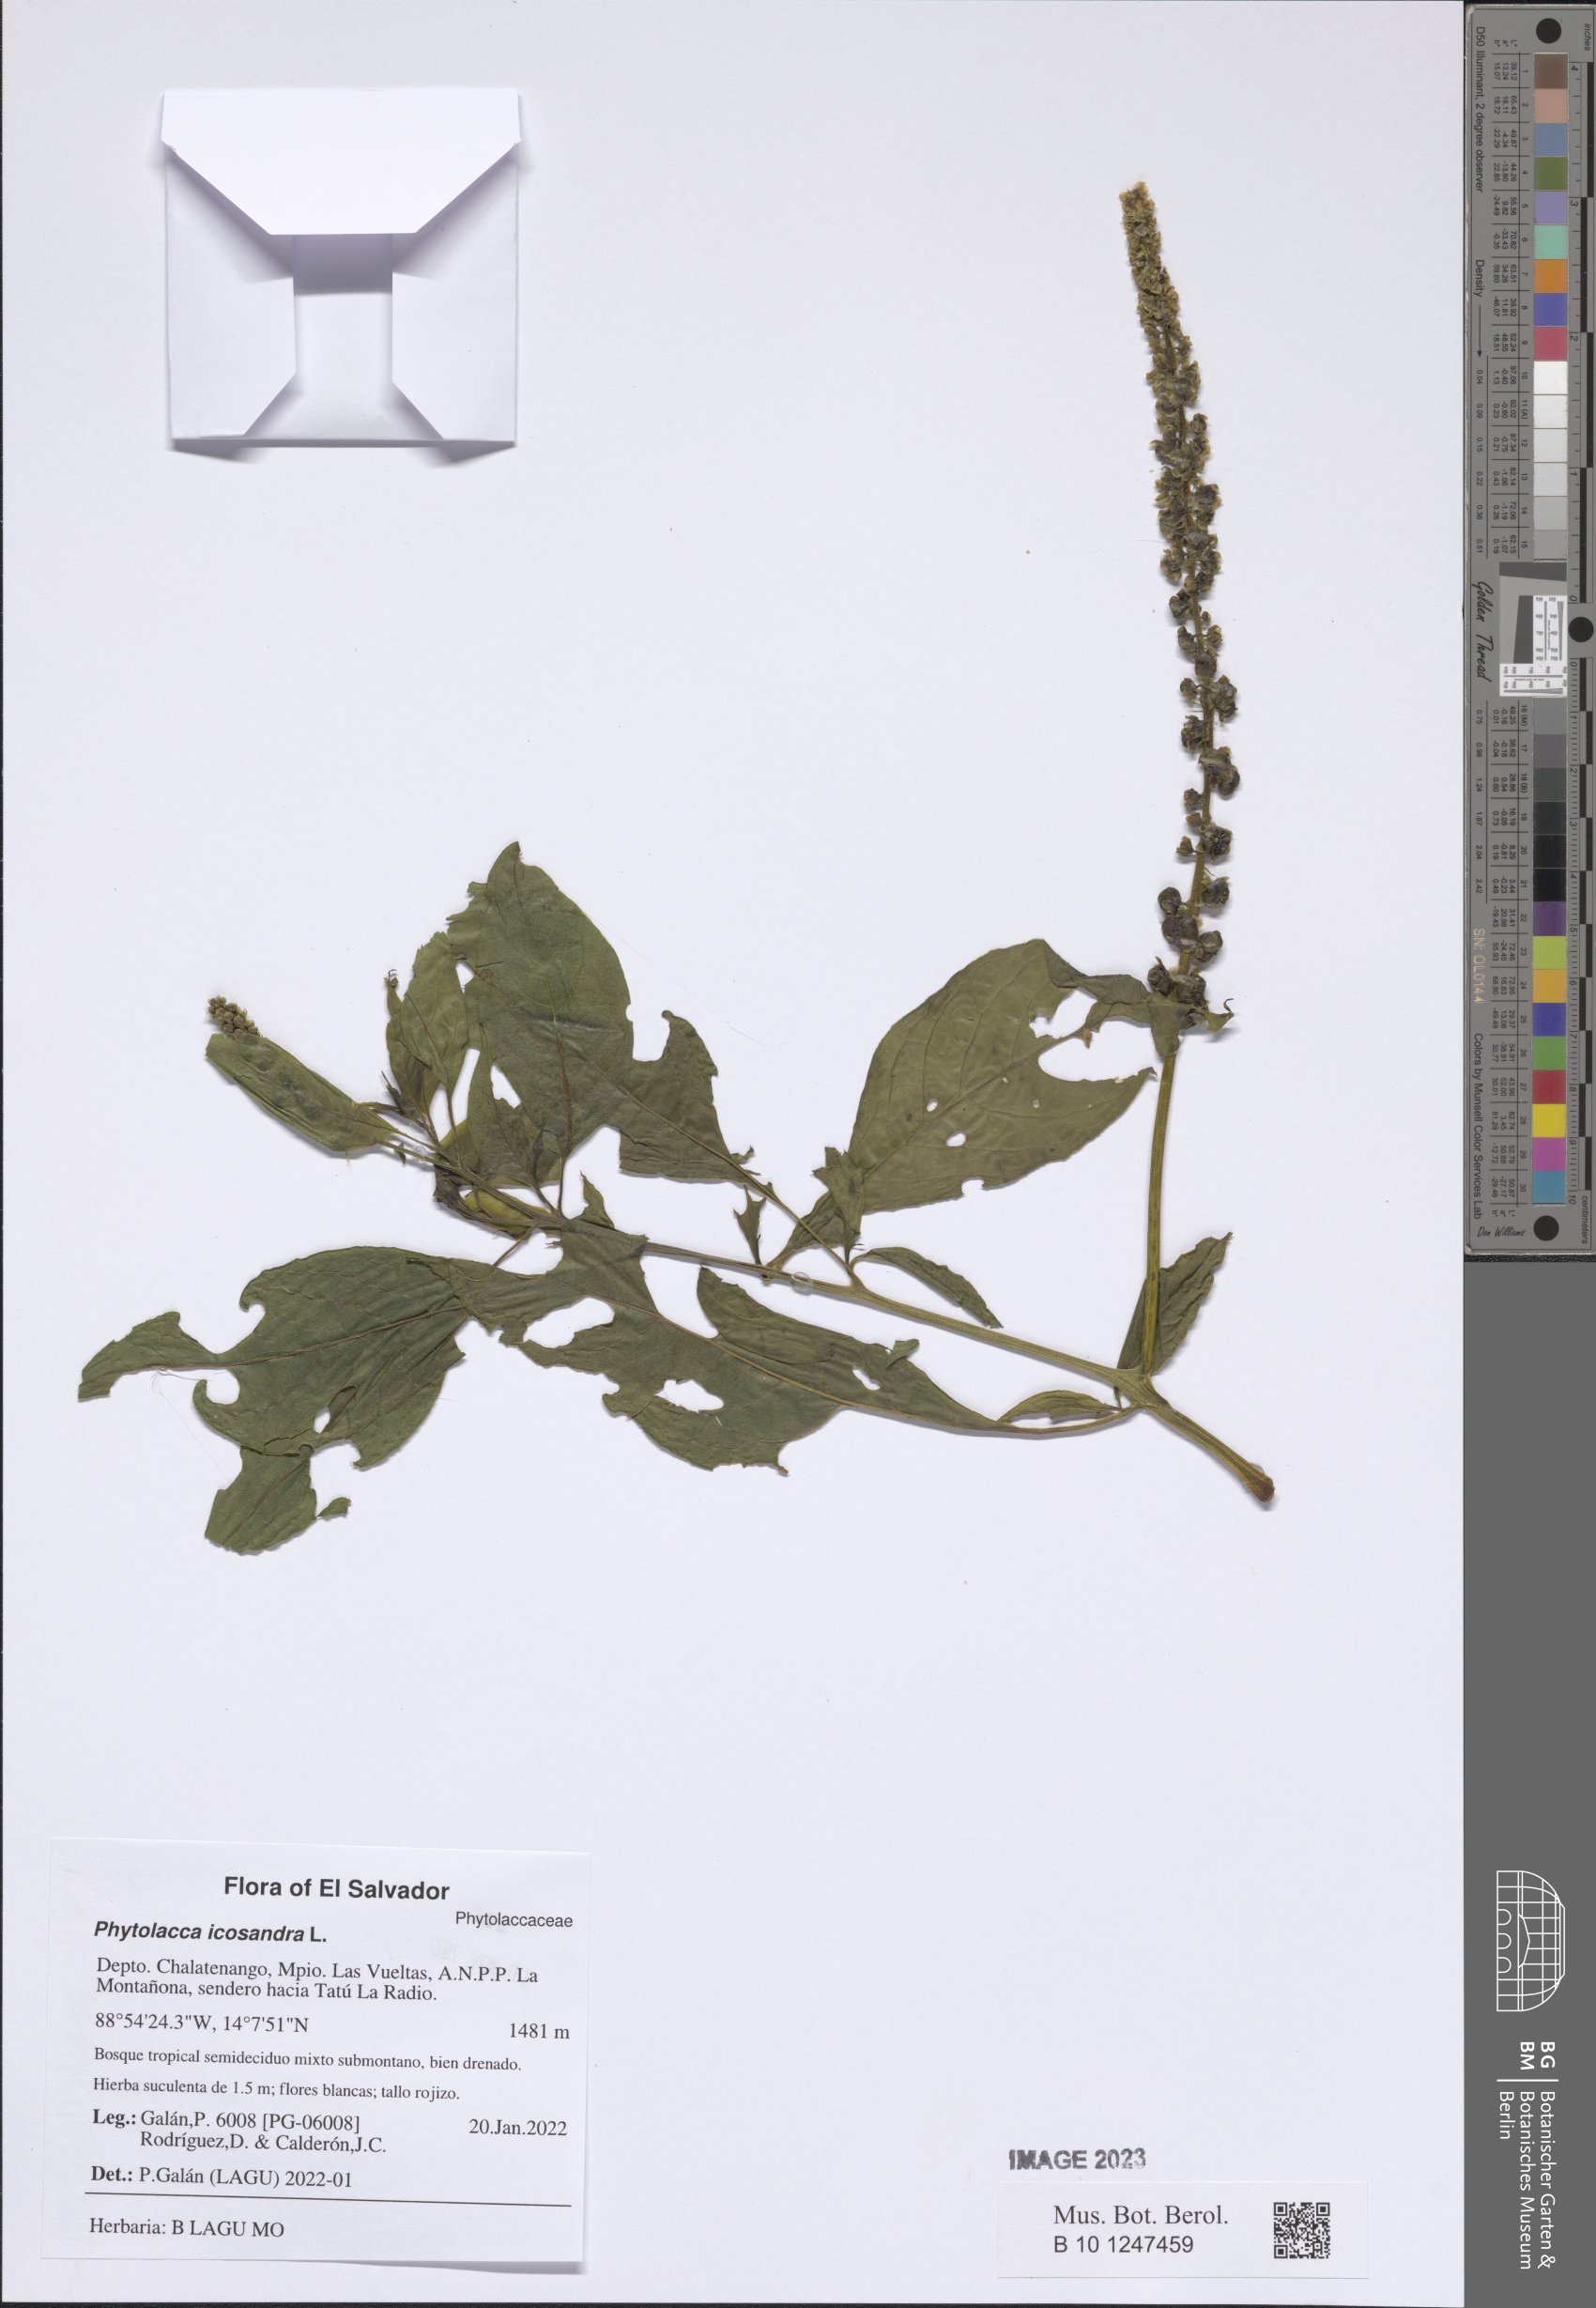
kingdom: Plantae
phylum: Tracheophyta
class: Magnoliopsida
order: Caryophyllales
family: Phytolaccaceae
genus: Phytolacca
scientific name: Phytolacca icosandra
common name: Button pokeweed
